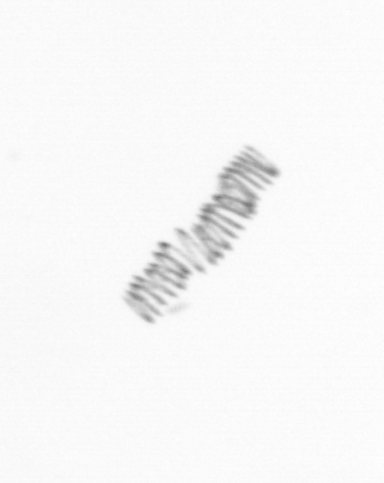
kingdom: Chromista
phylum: Ochrophyta
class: Bacillariophyceae
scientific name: Bacillariophyceae
